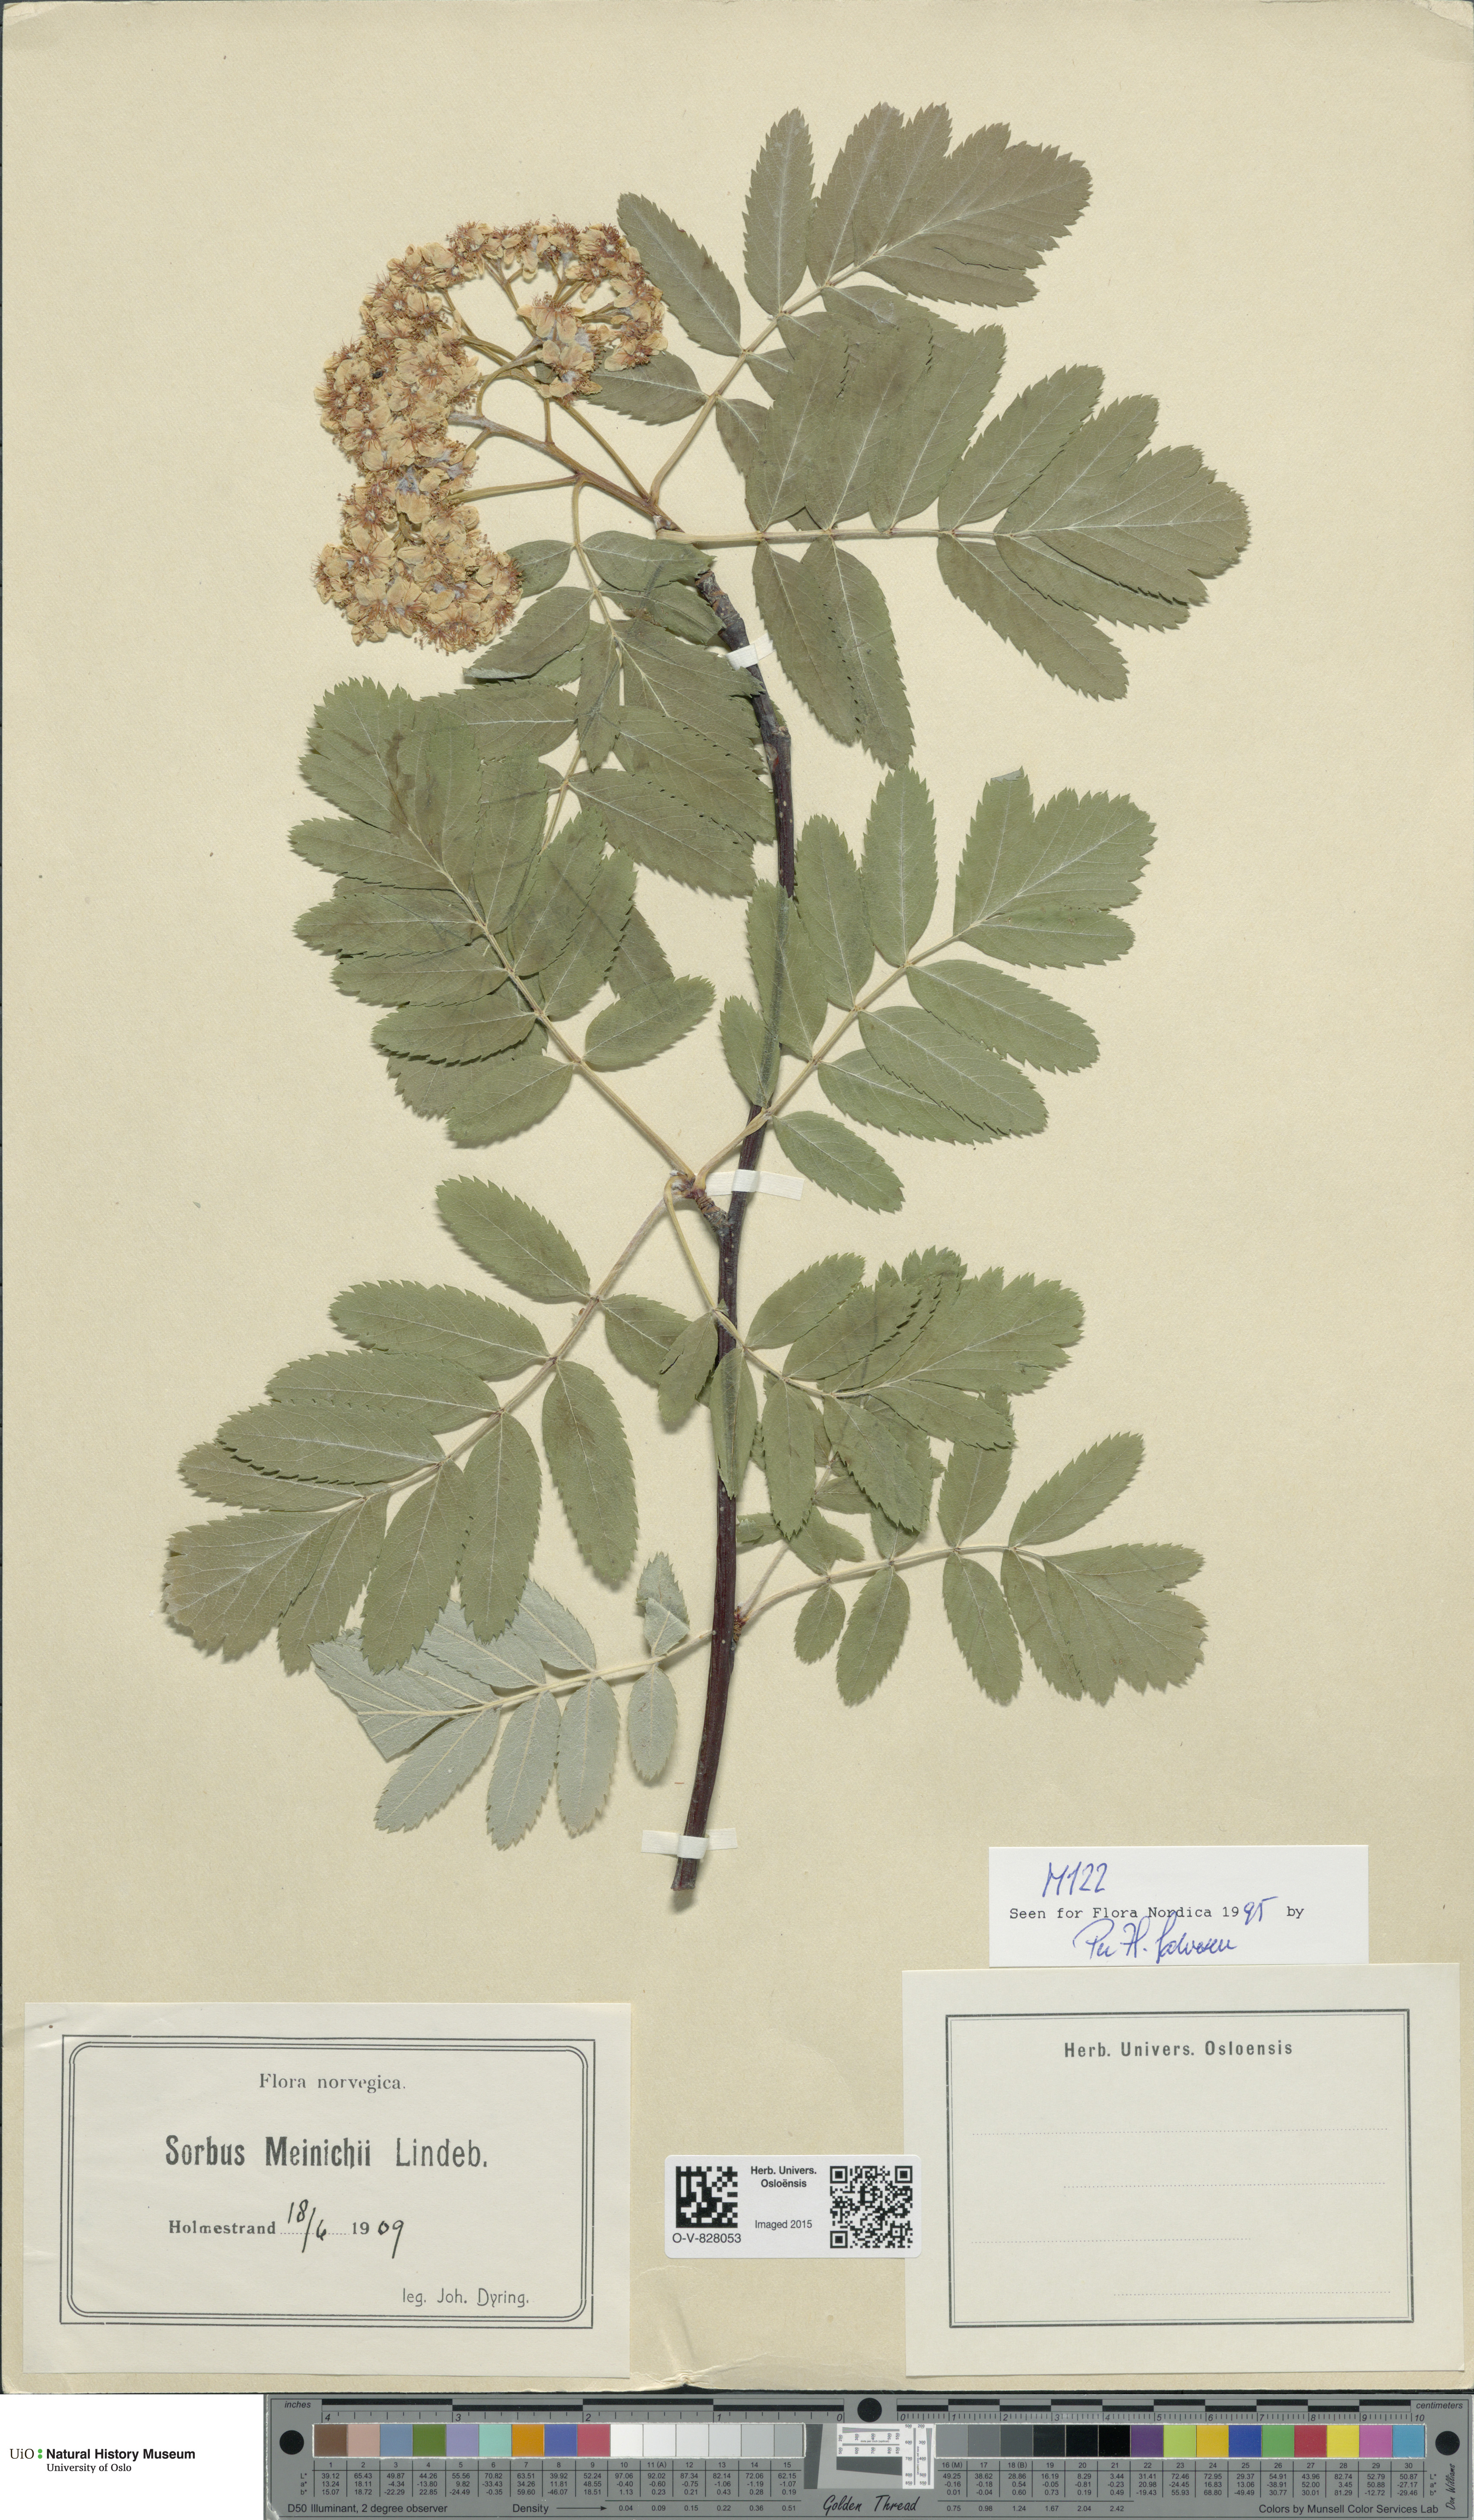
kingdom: Plantae
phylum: Tracheophyta
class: Magnoliopsida
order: Rosales
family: Rosaceae
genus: Hedlundia
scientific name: Hedlundia meinichii
